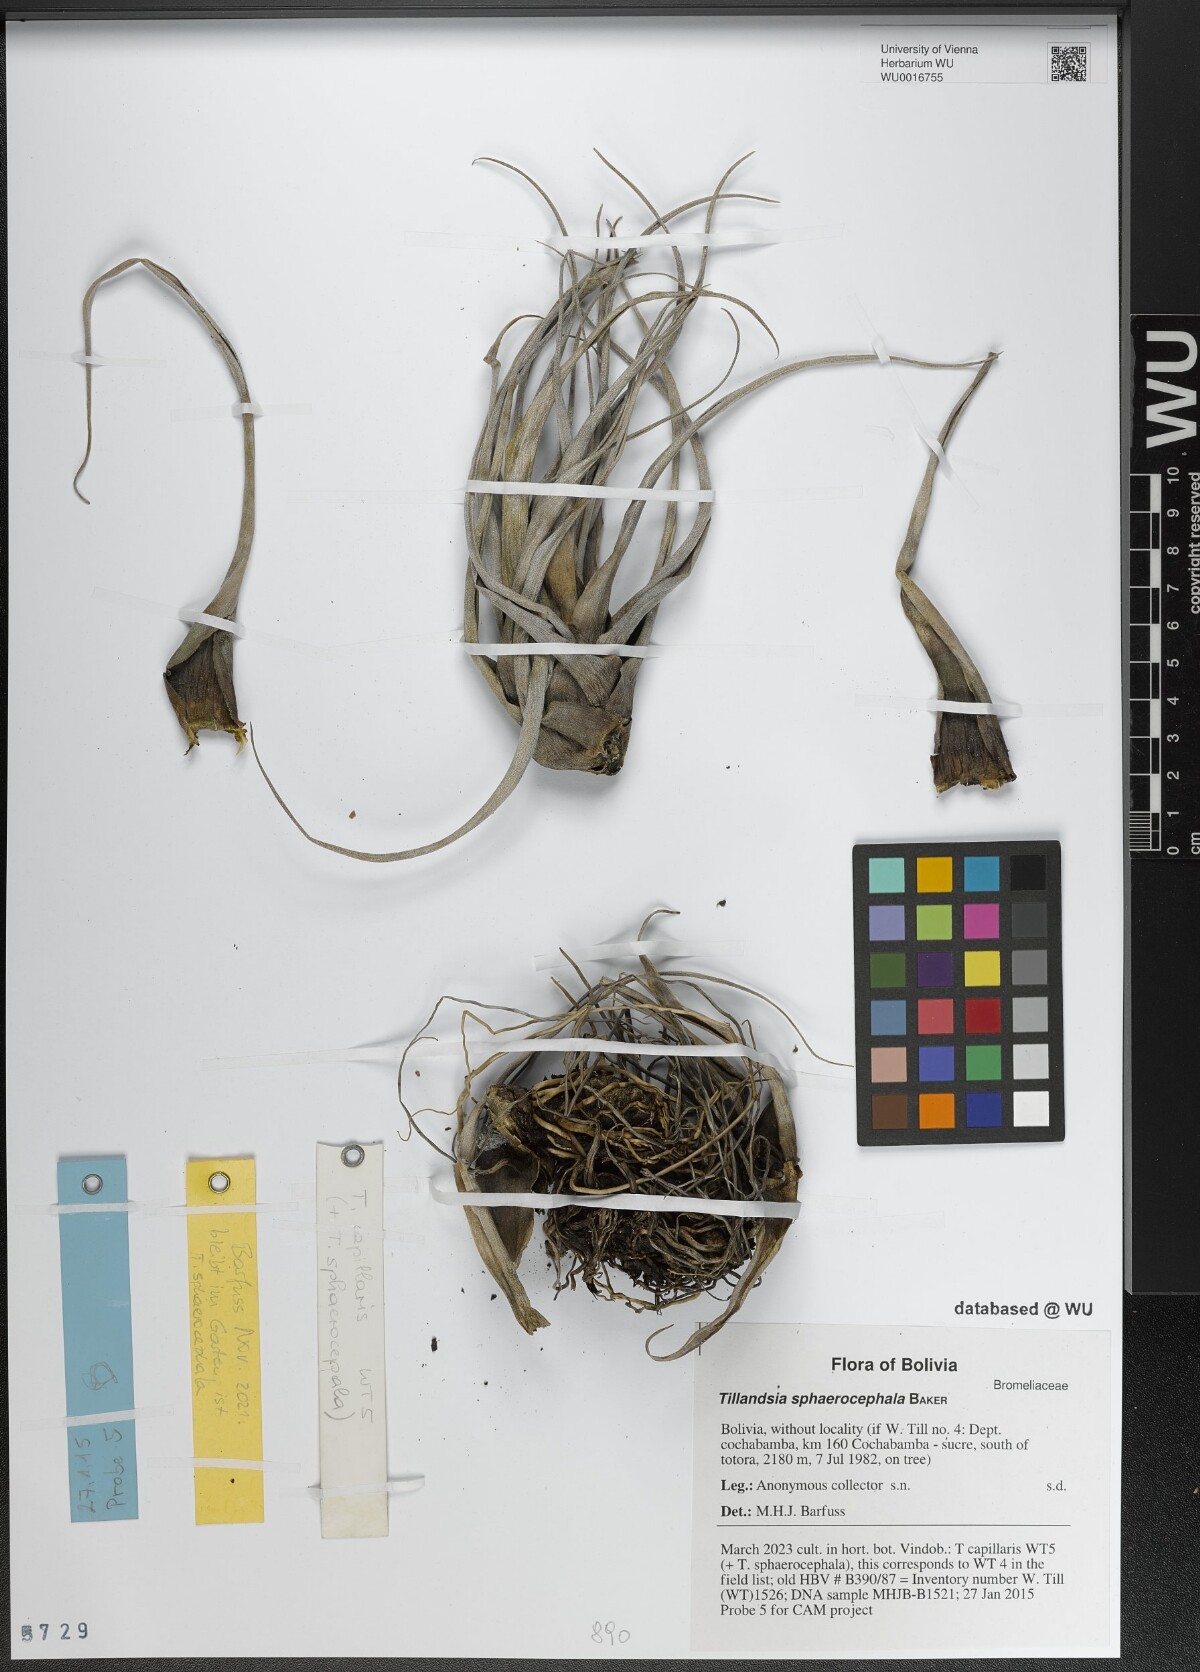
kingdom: Plantae
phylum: Tracheophyta
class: Liliopsida
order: Poales
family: Bromeliaceae
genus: Tillandsia
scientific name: Tillandsia sphaerocephala
